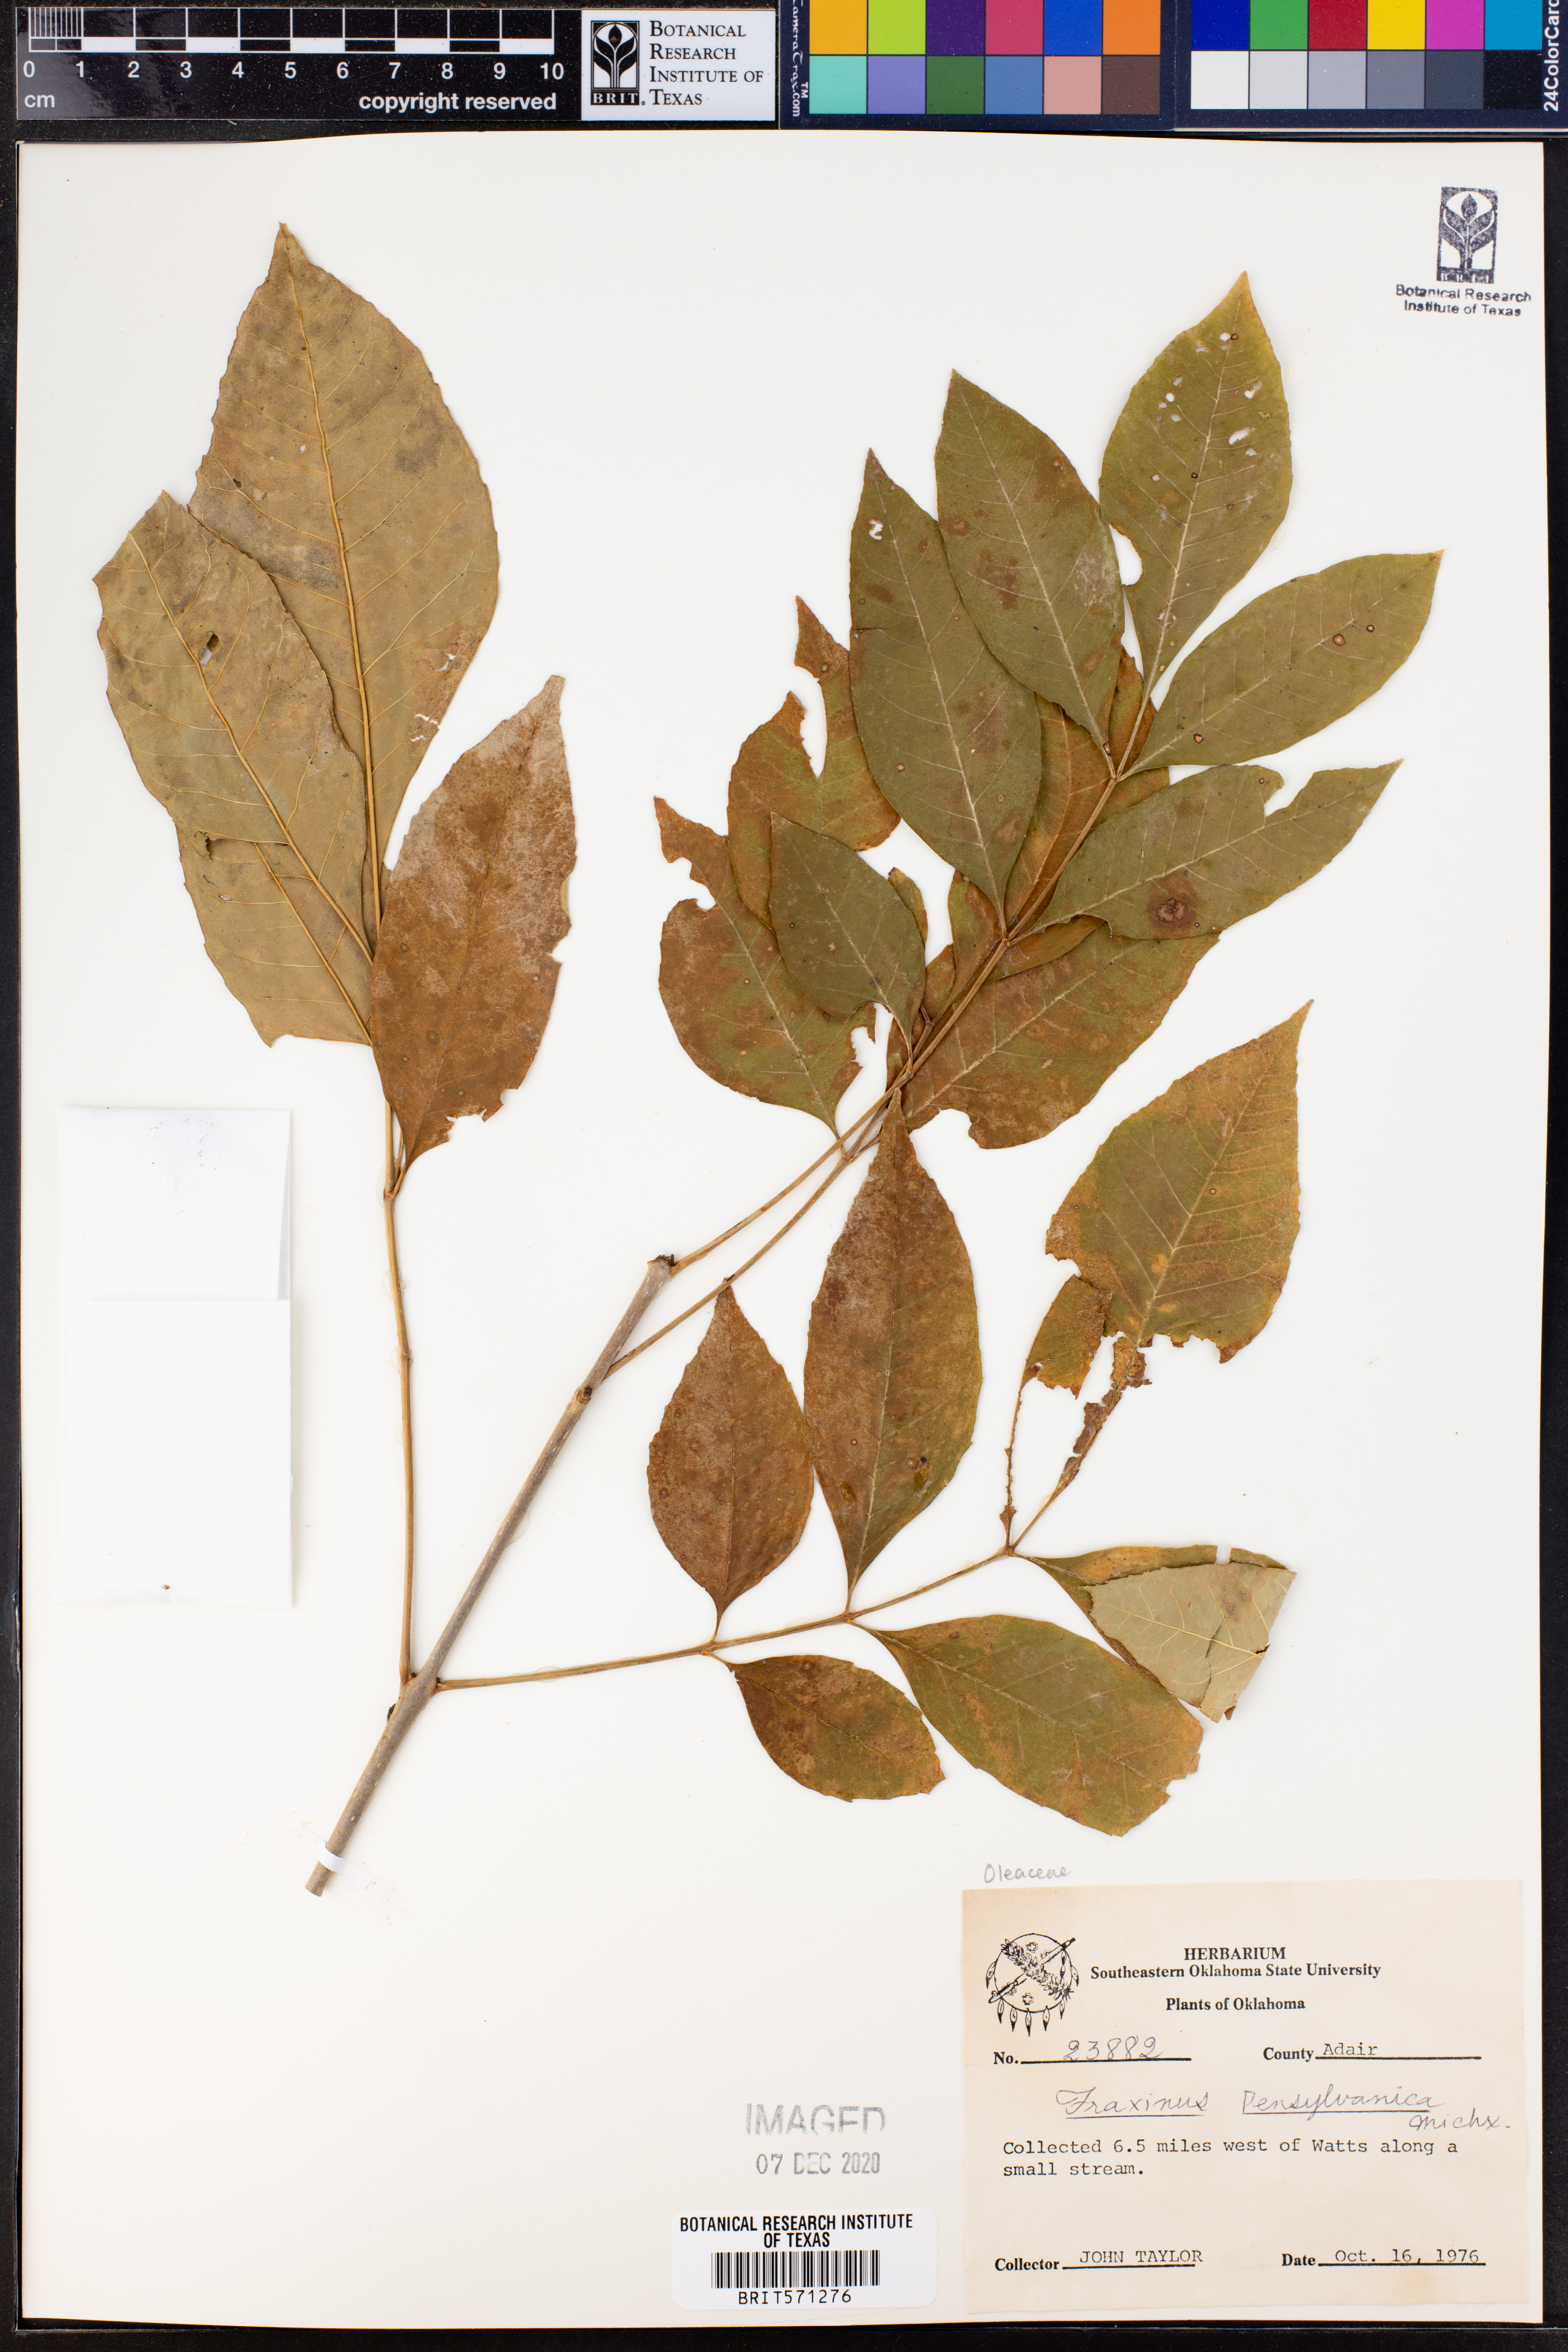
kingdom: Plantae
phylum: Tracheophyta
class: Magnoliopsida
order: Lamiales
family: Oleaceae
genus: Fraxinus
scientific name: Fraxinus pennsylvanica
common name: Green ash
